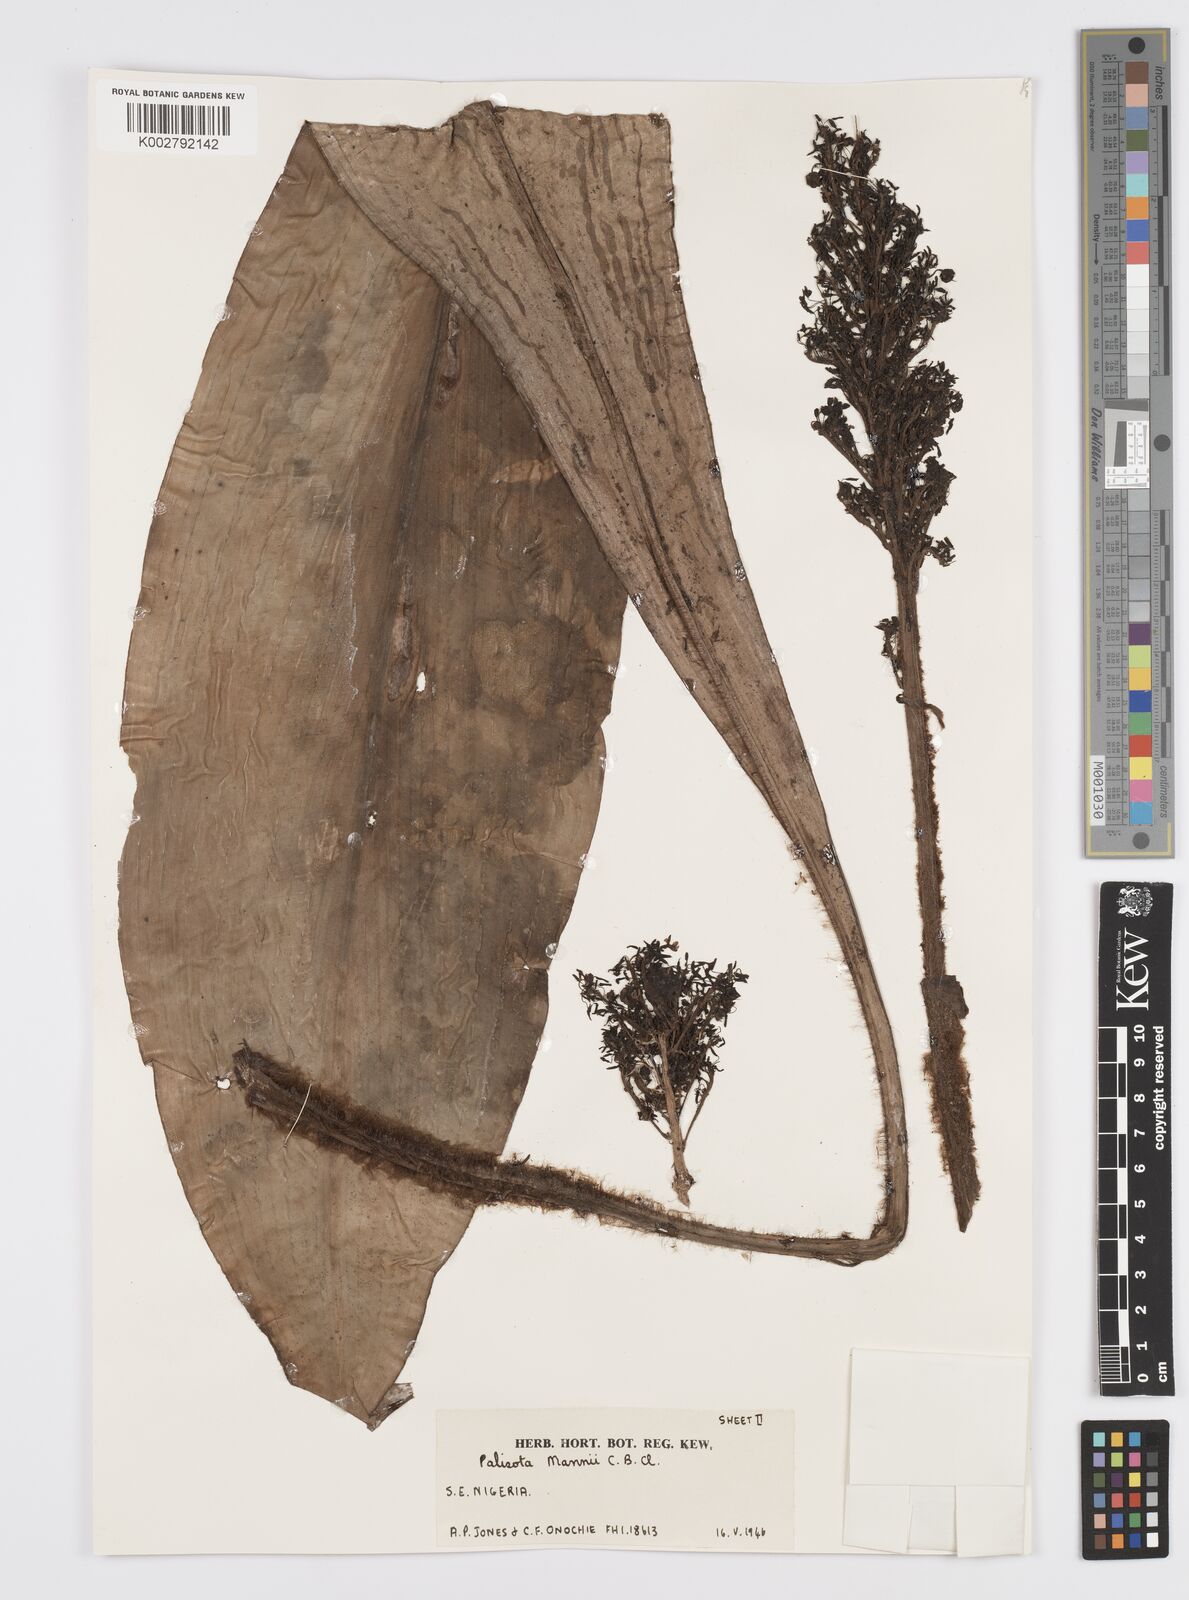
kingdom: Plantae
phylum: Tracheophyta
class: Liliopsida
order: Commelinales
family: Commelinaceae
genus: Palisota
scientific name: Palisota mannii
